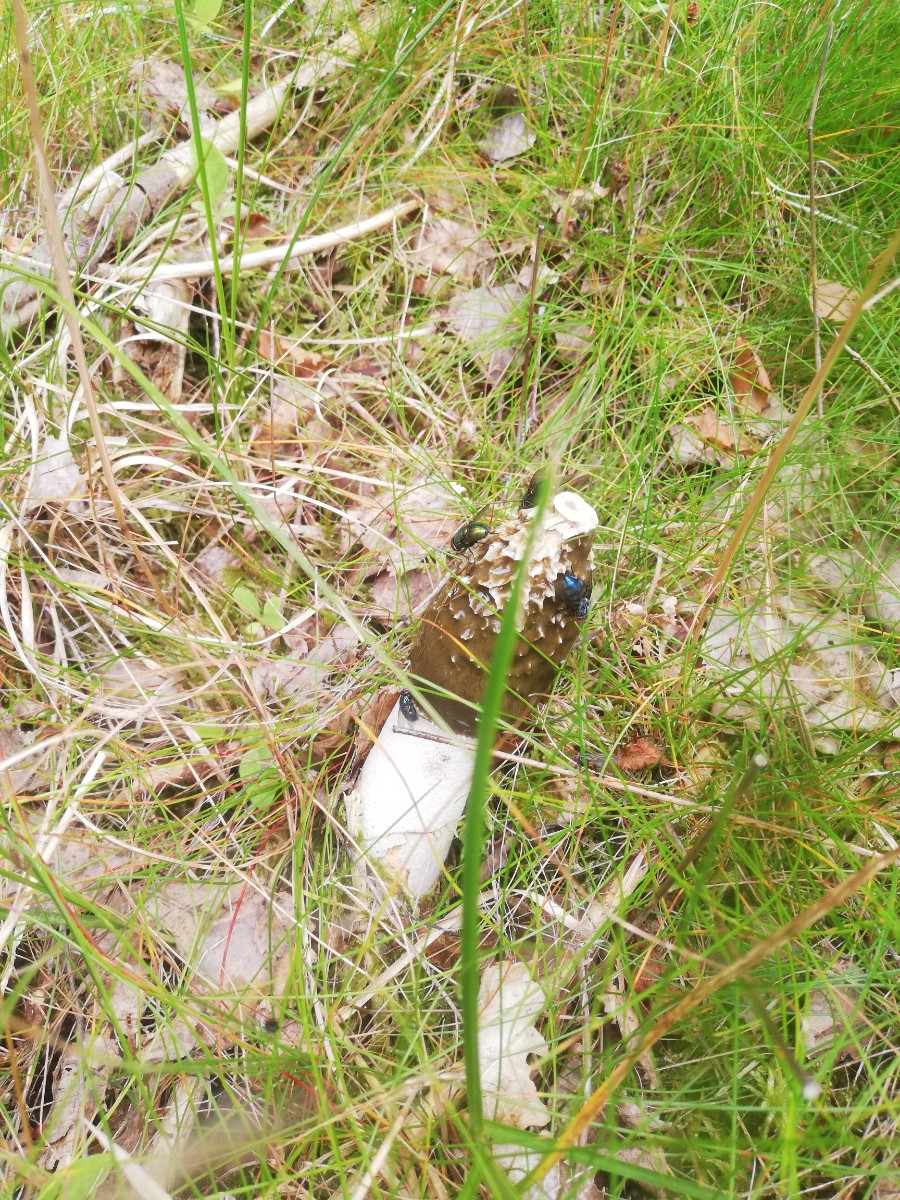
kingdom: Fungi
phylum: Basidiomycota
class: Agaricomycetes
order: Phallales
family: Phallaceae
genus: Phallus
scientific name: Phallus impudicus
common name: almindelig stinksvamp
